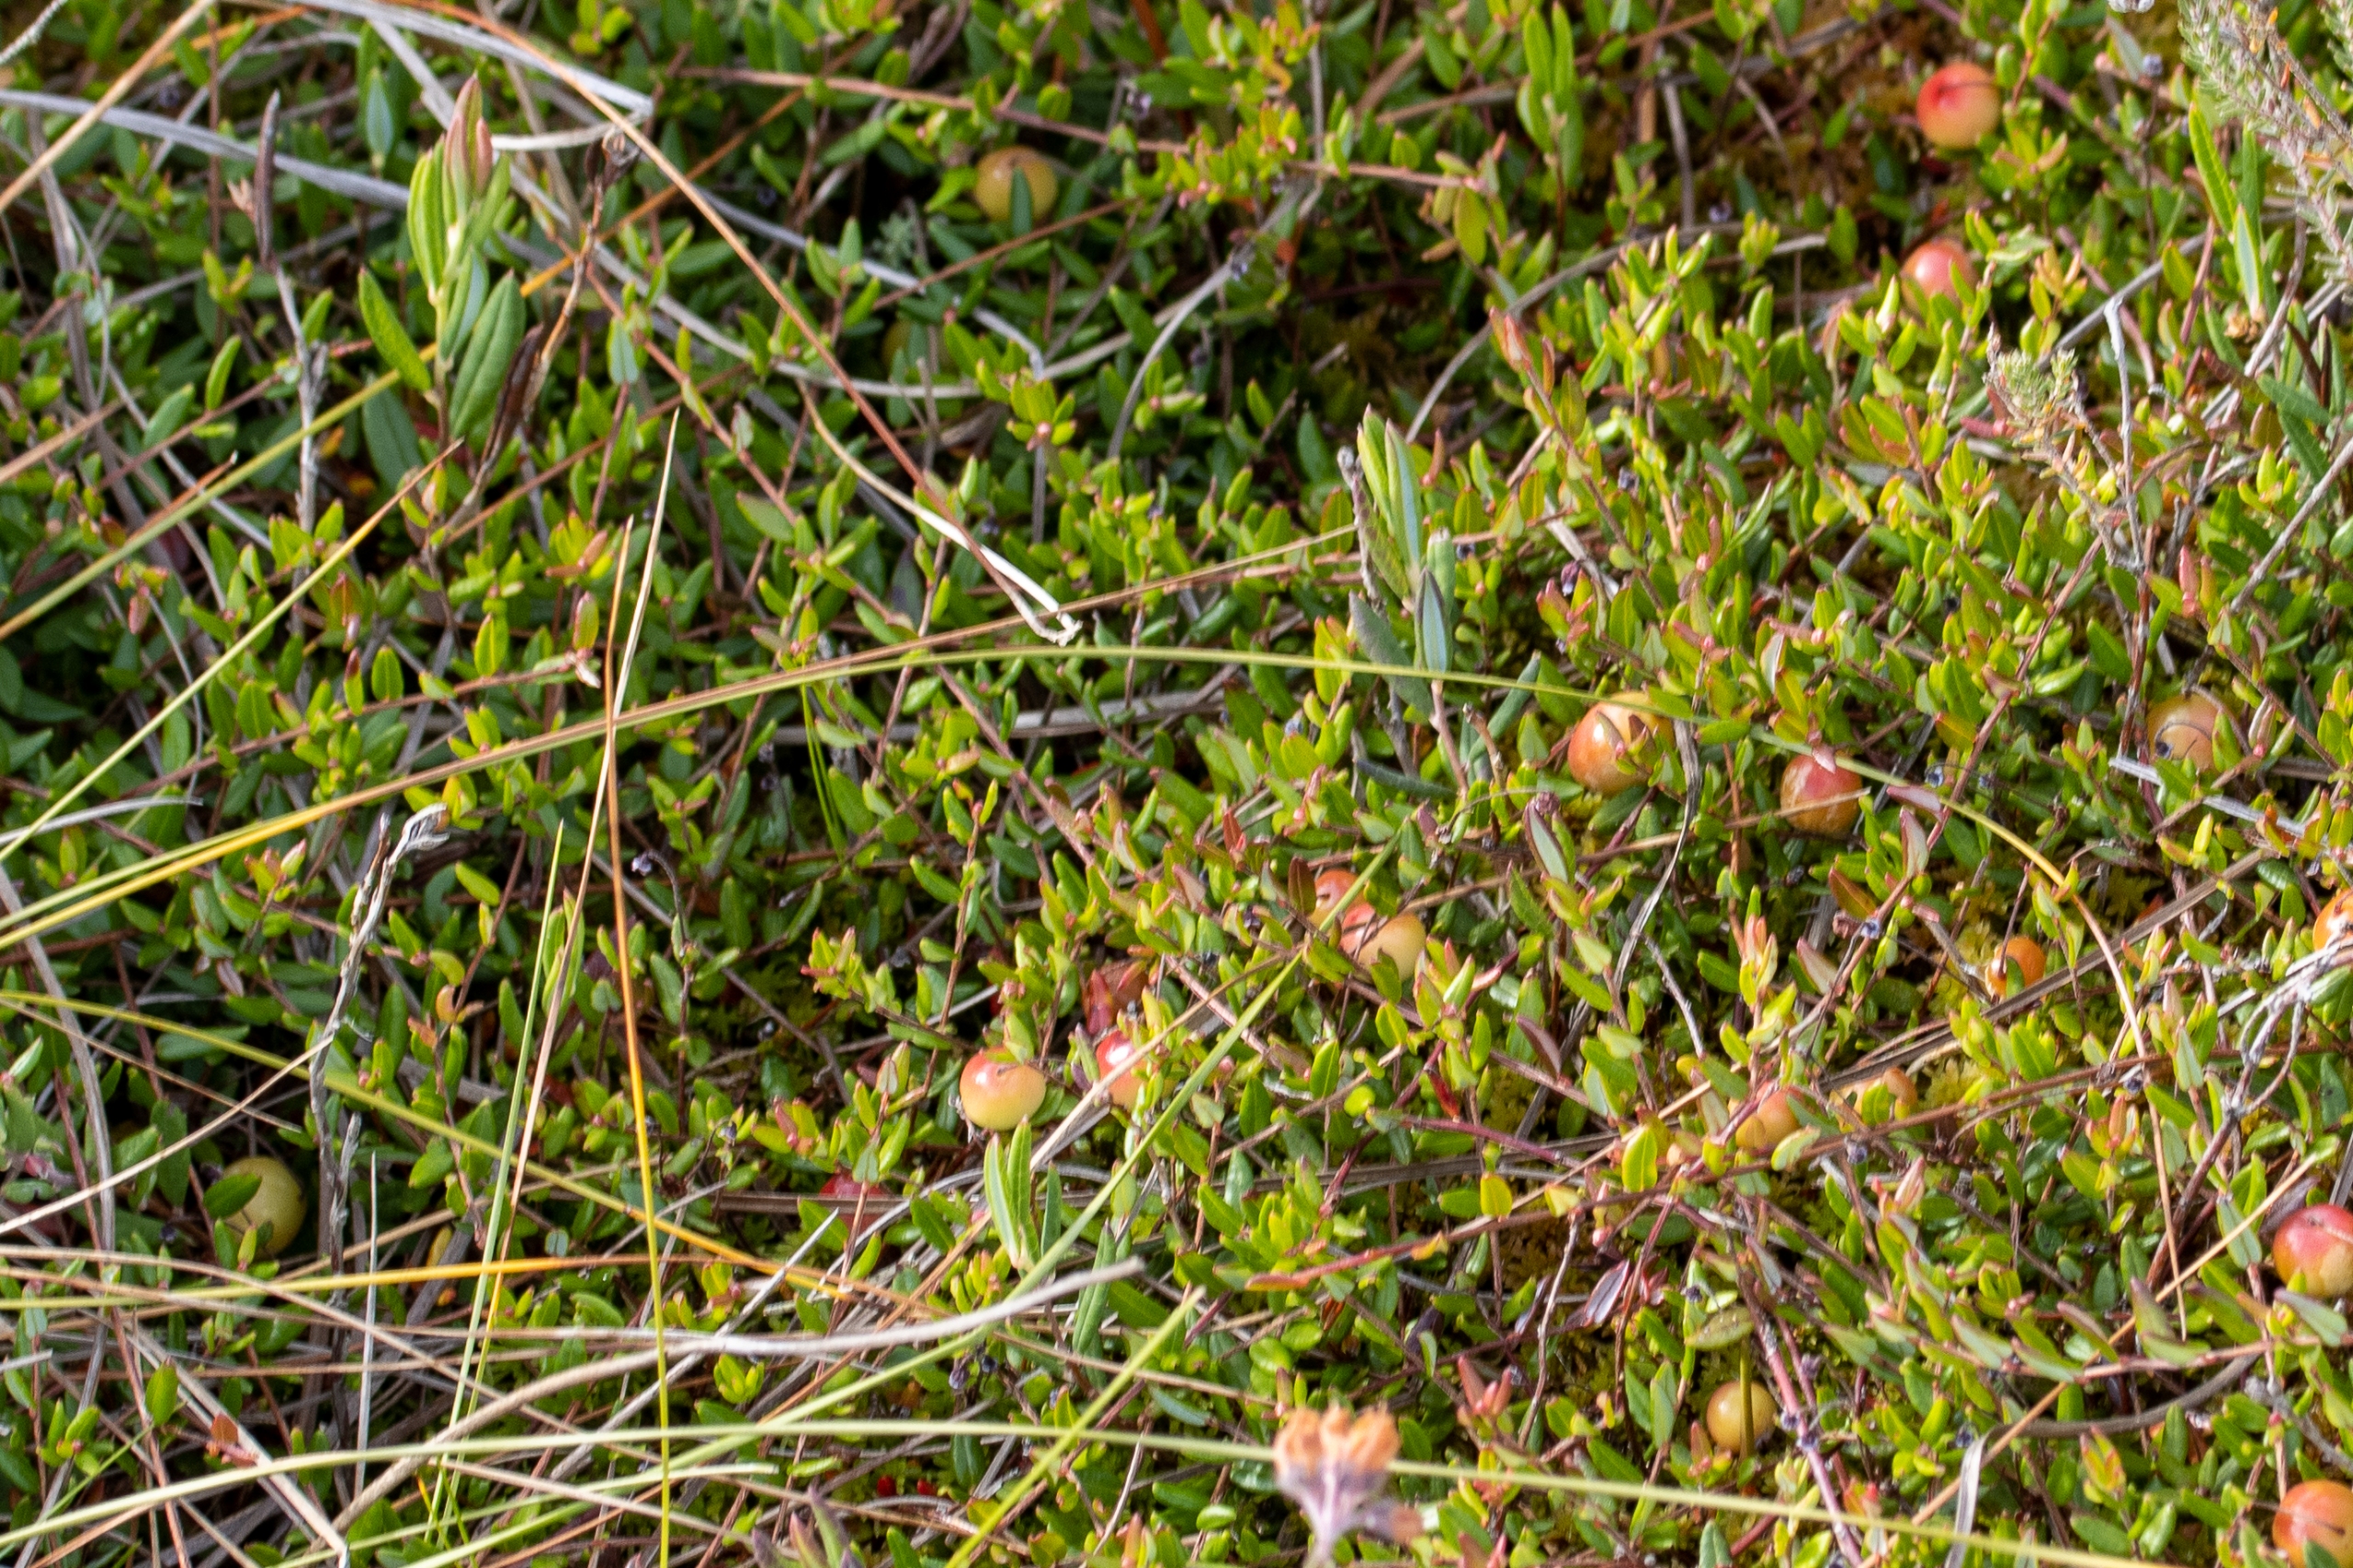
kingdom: Plantae
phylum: Tracheophyta
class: Magnoliopsida
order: Ericales
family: Ericaceae
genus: Vaccinium
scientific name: Vaccinium oxycoccos
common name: Tranebær
